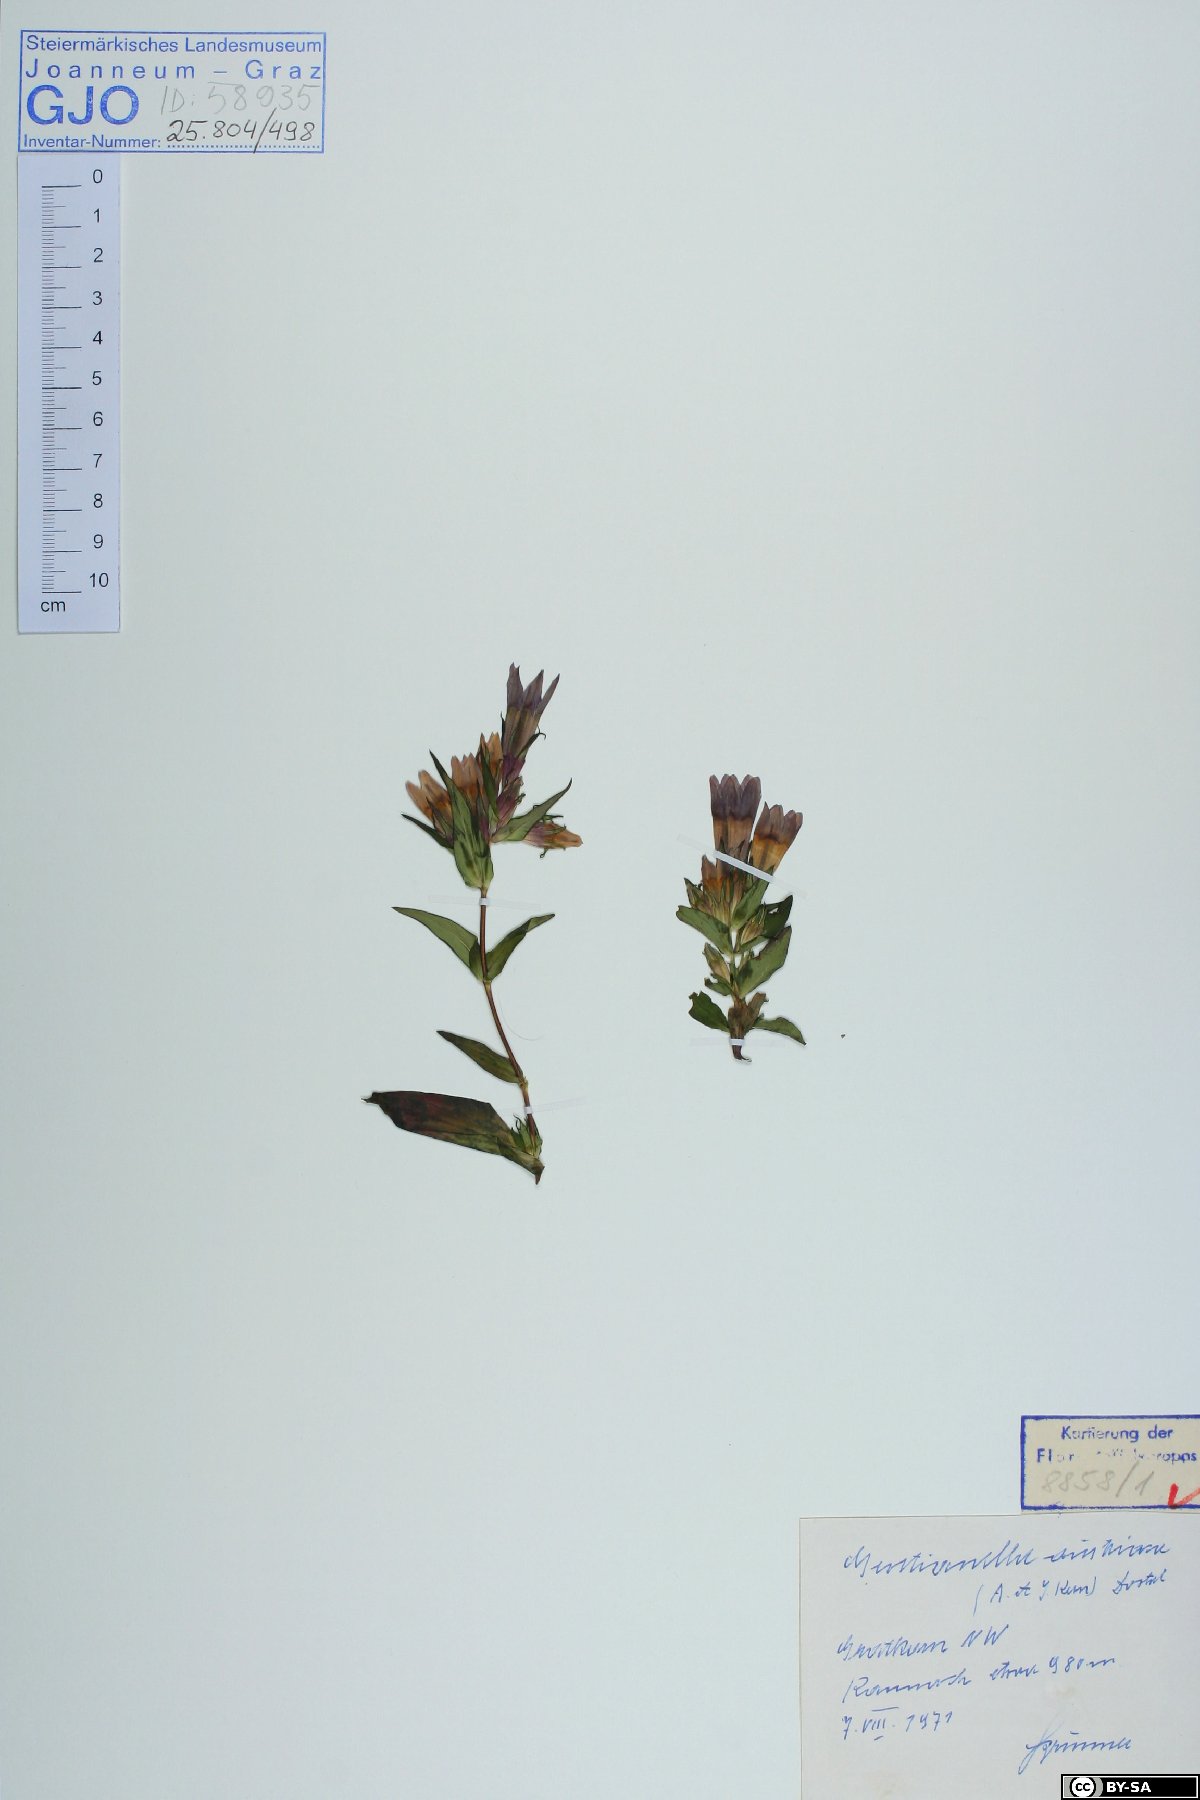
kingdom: Plantae
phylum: Tracheophyta
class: Magnoliopsida
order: Gentianales
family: Gentianaceae
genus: Gentianella
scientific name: Gentianella austriaca
